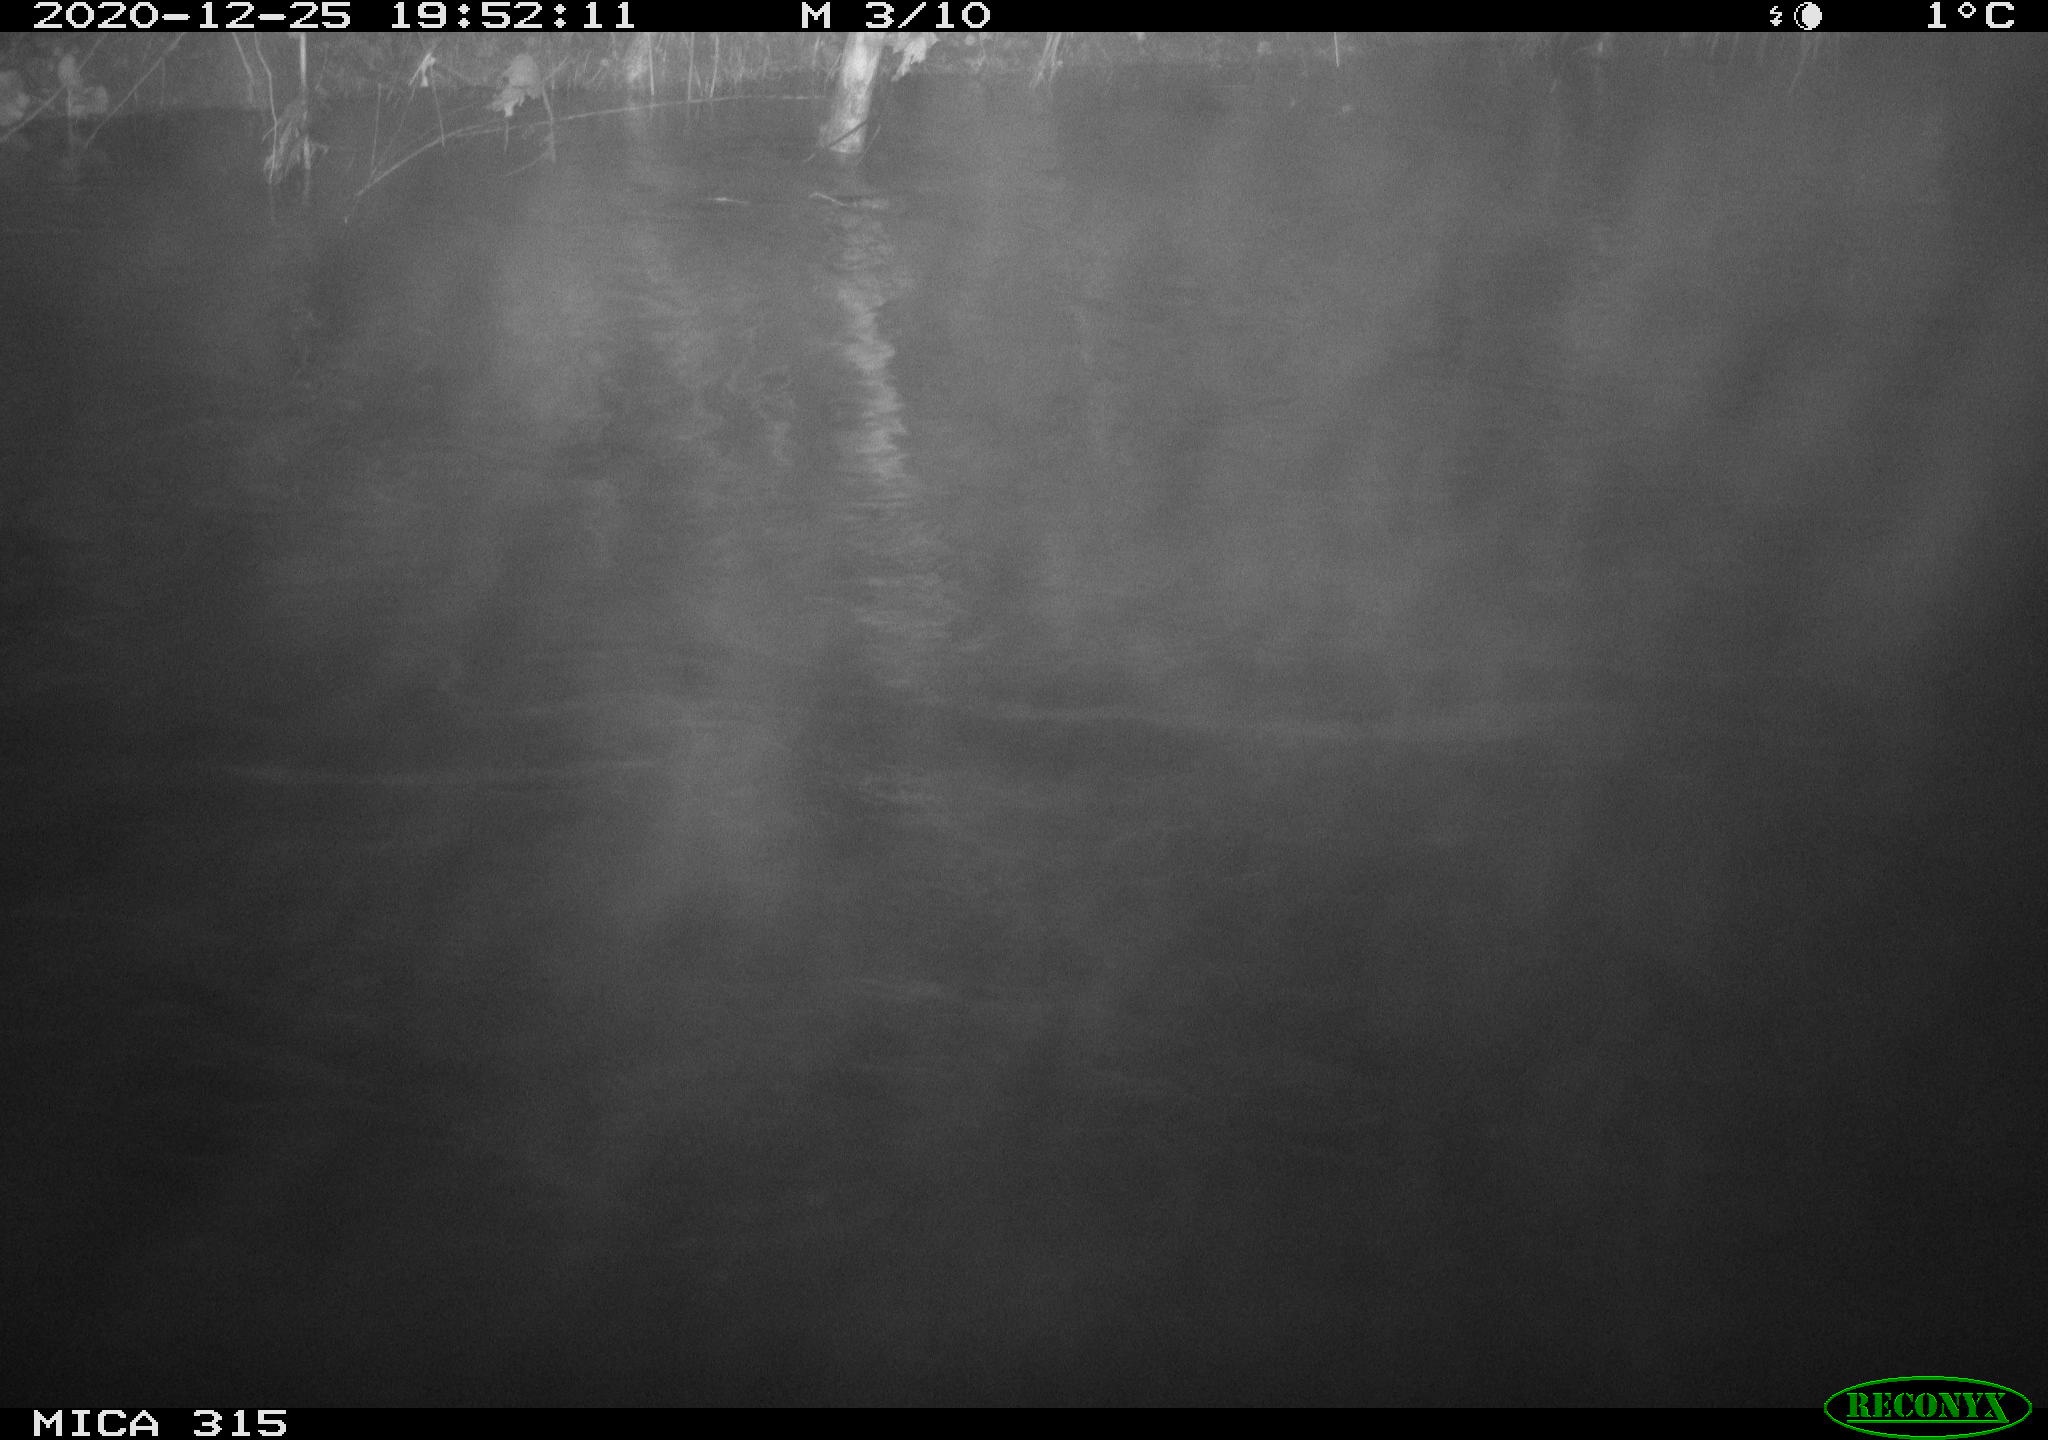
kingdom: Animalia
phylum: Chordata
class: Aves
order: Anseriformes
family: Anatidae
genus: Anas
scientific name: Anas platyrhynchos
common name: Mallard
